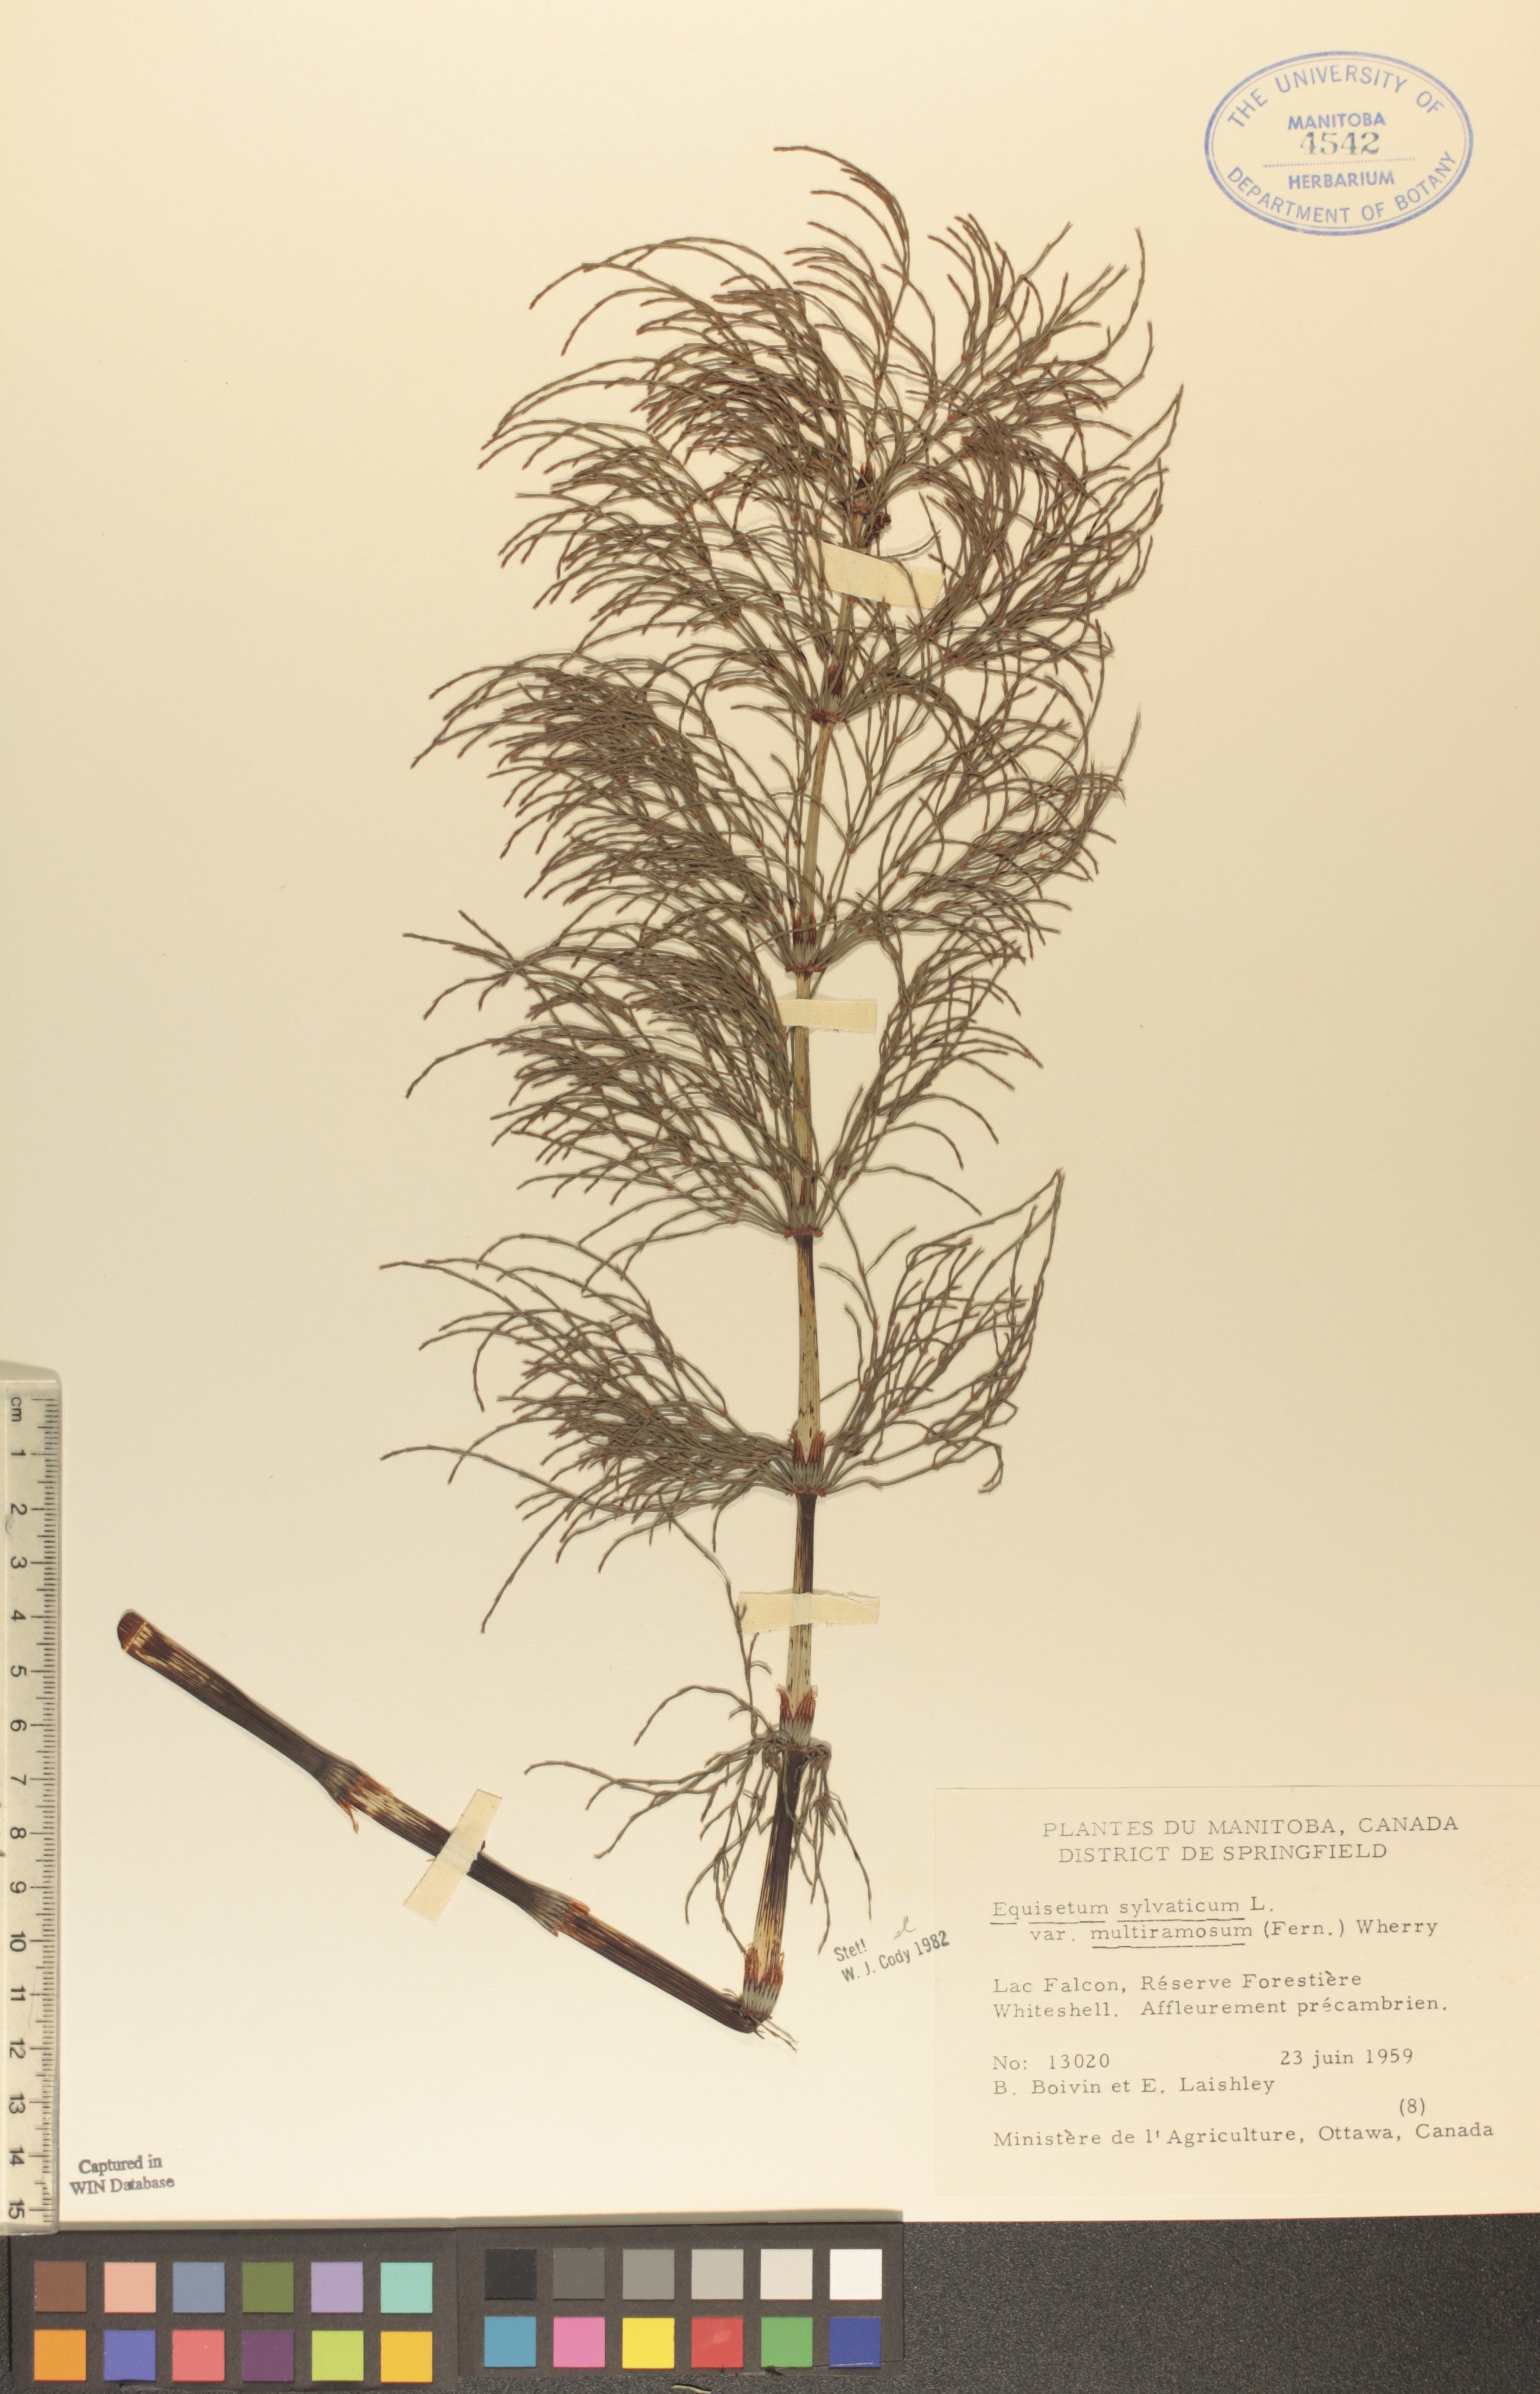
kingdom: Plantae
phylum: Tracheophyta
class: Polypodiopsida
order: Equisetales
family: Equisetaceae
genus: Equisetum
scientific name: Equisetum sylvaticum
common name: Wood horsetail
